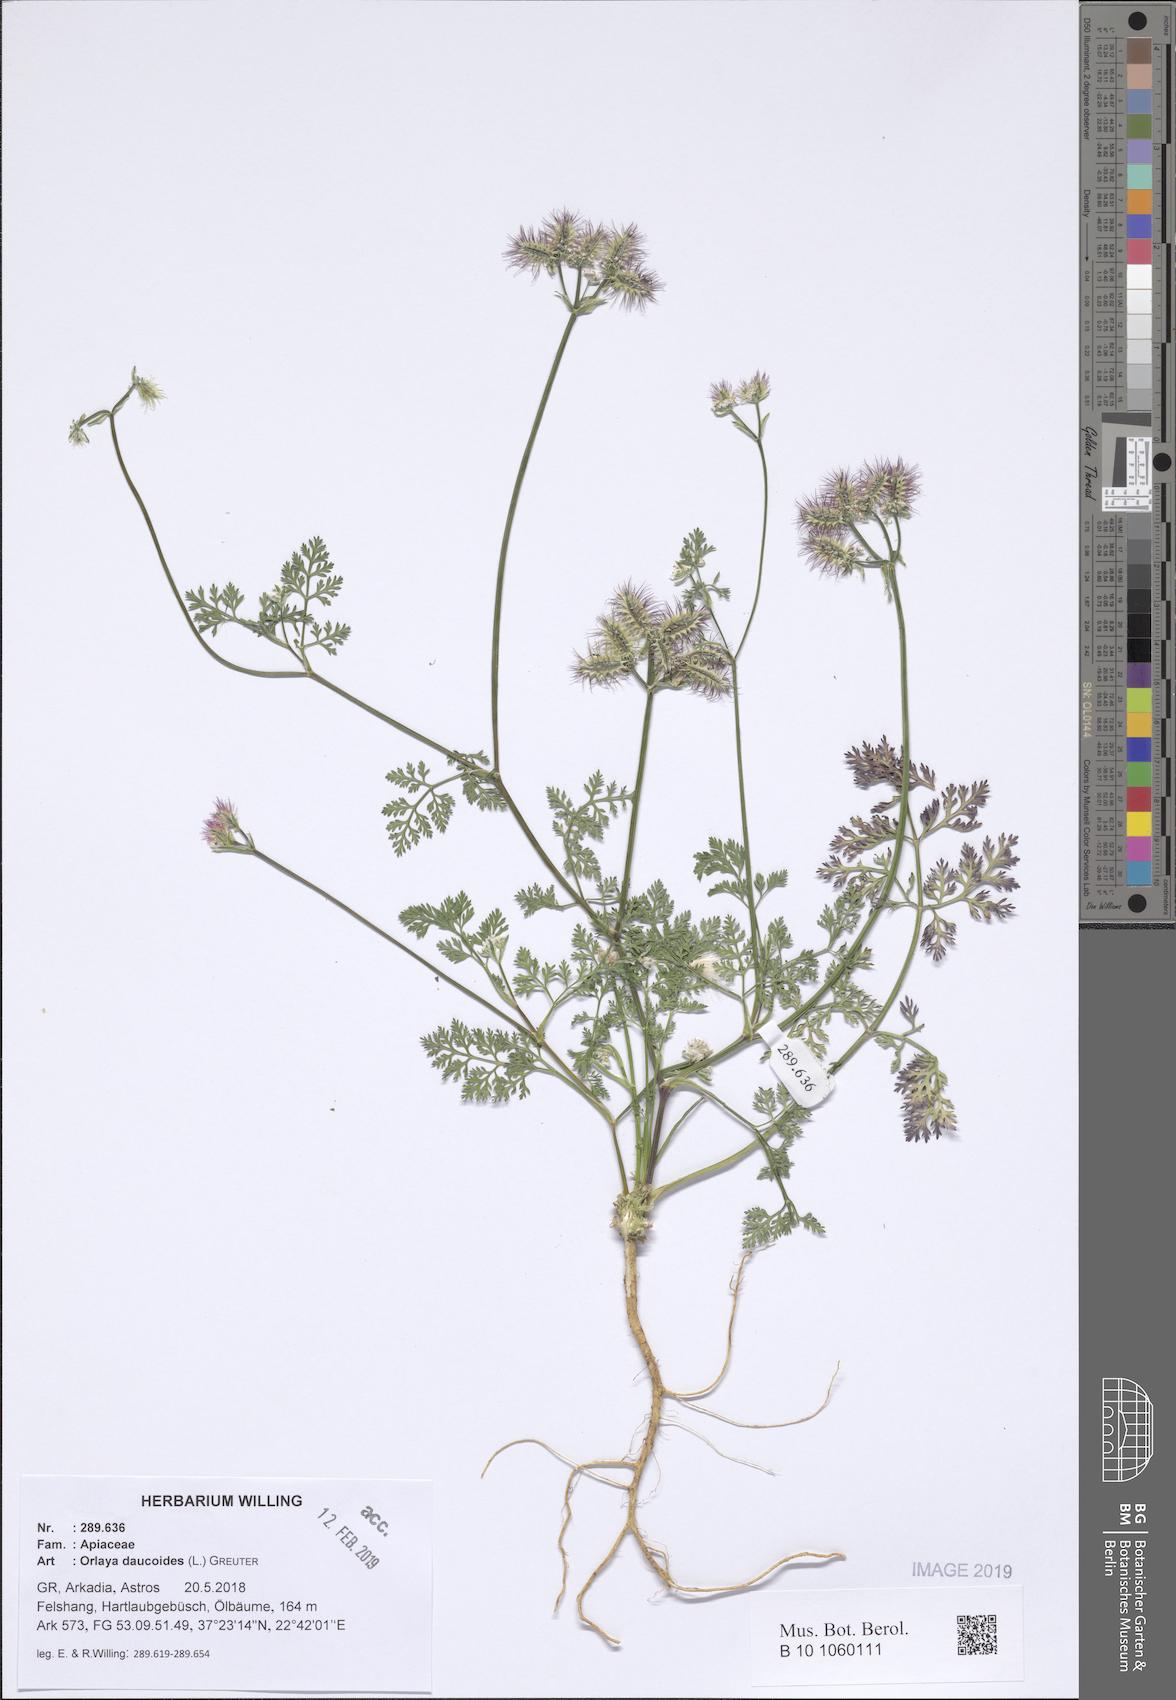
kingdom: Plantae
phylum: Tracheophyta
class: Magnoliopsida
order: Apiales
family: Apiaceae
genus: Orlaya
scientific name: Orlaya daucoides
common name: Flat-fruit orlaya
